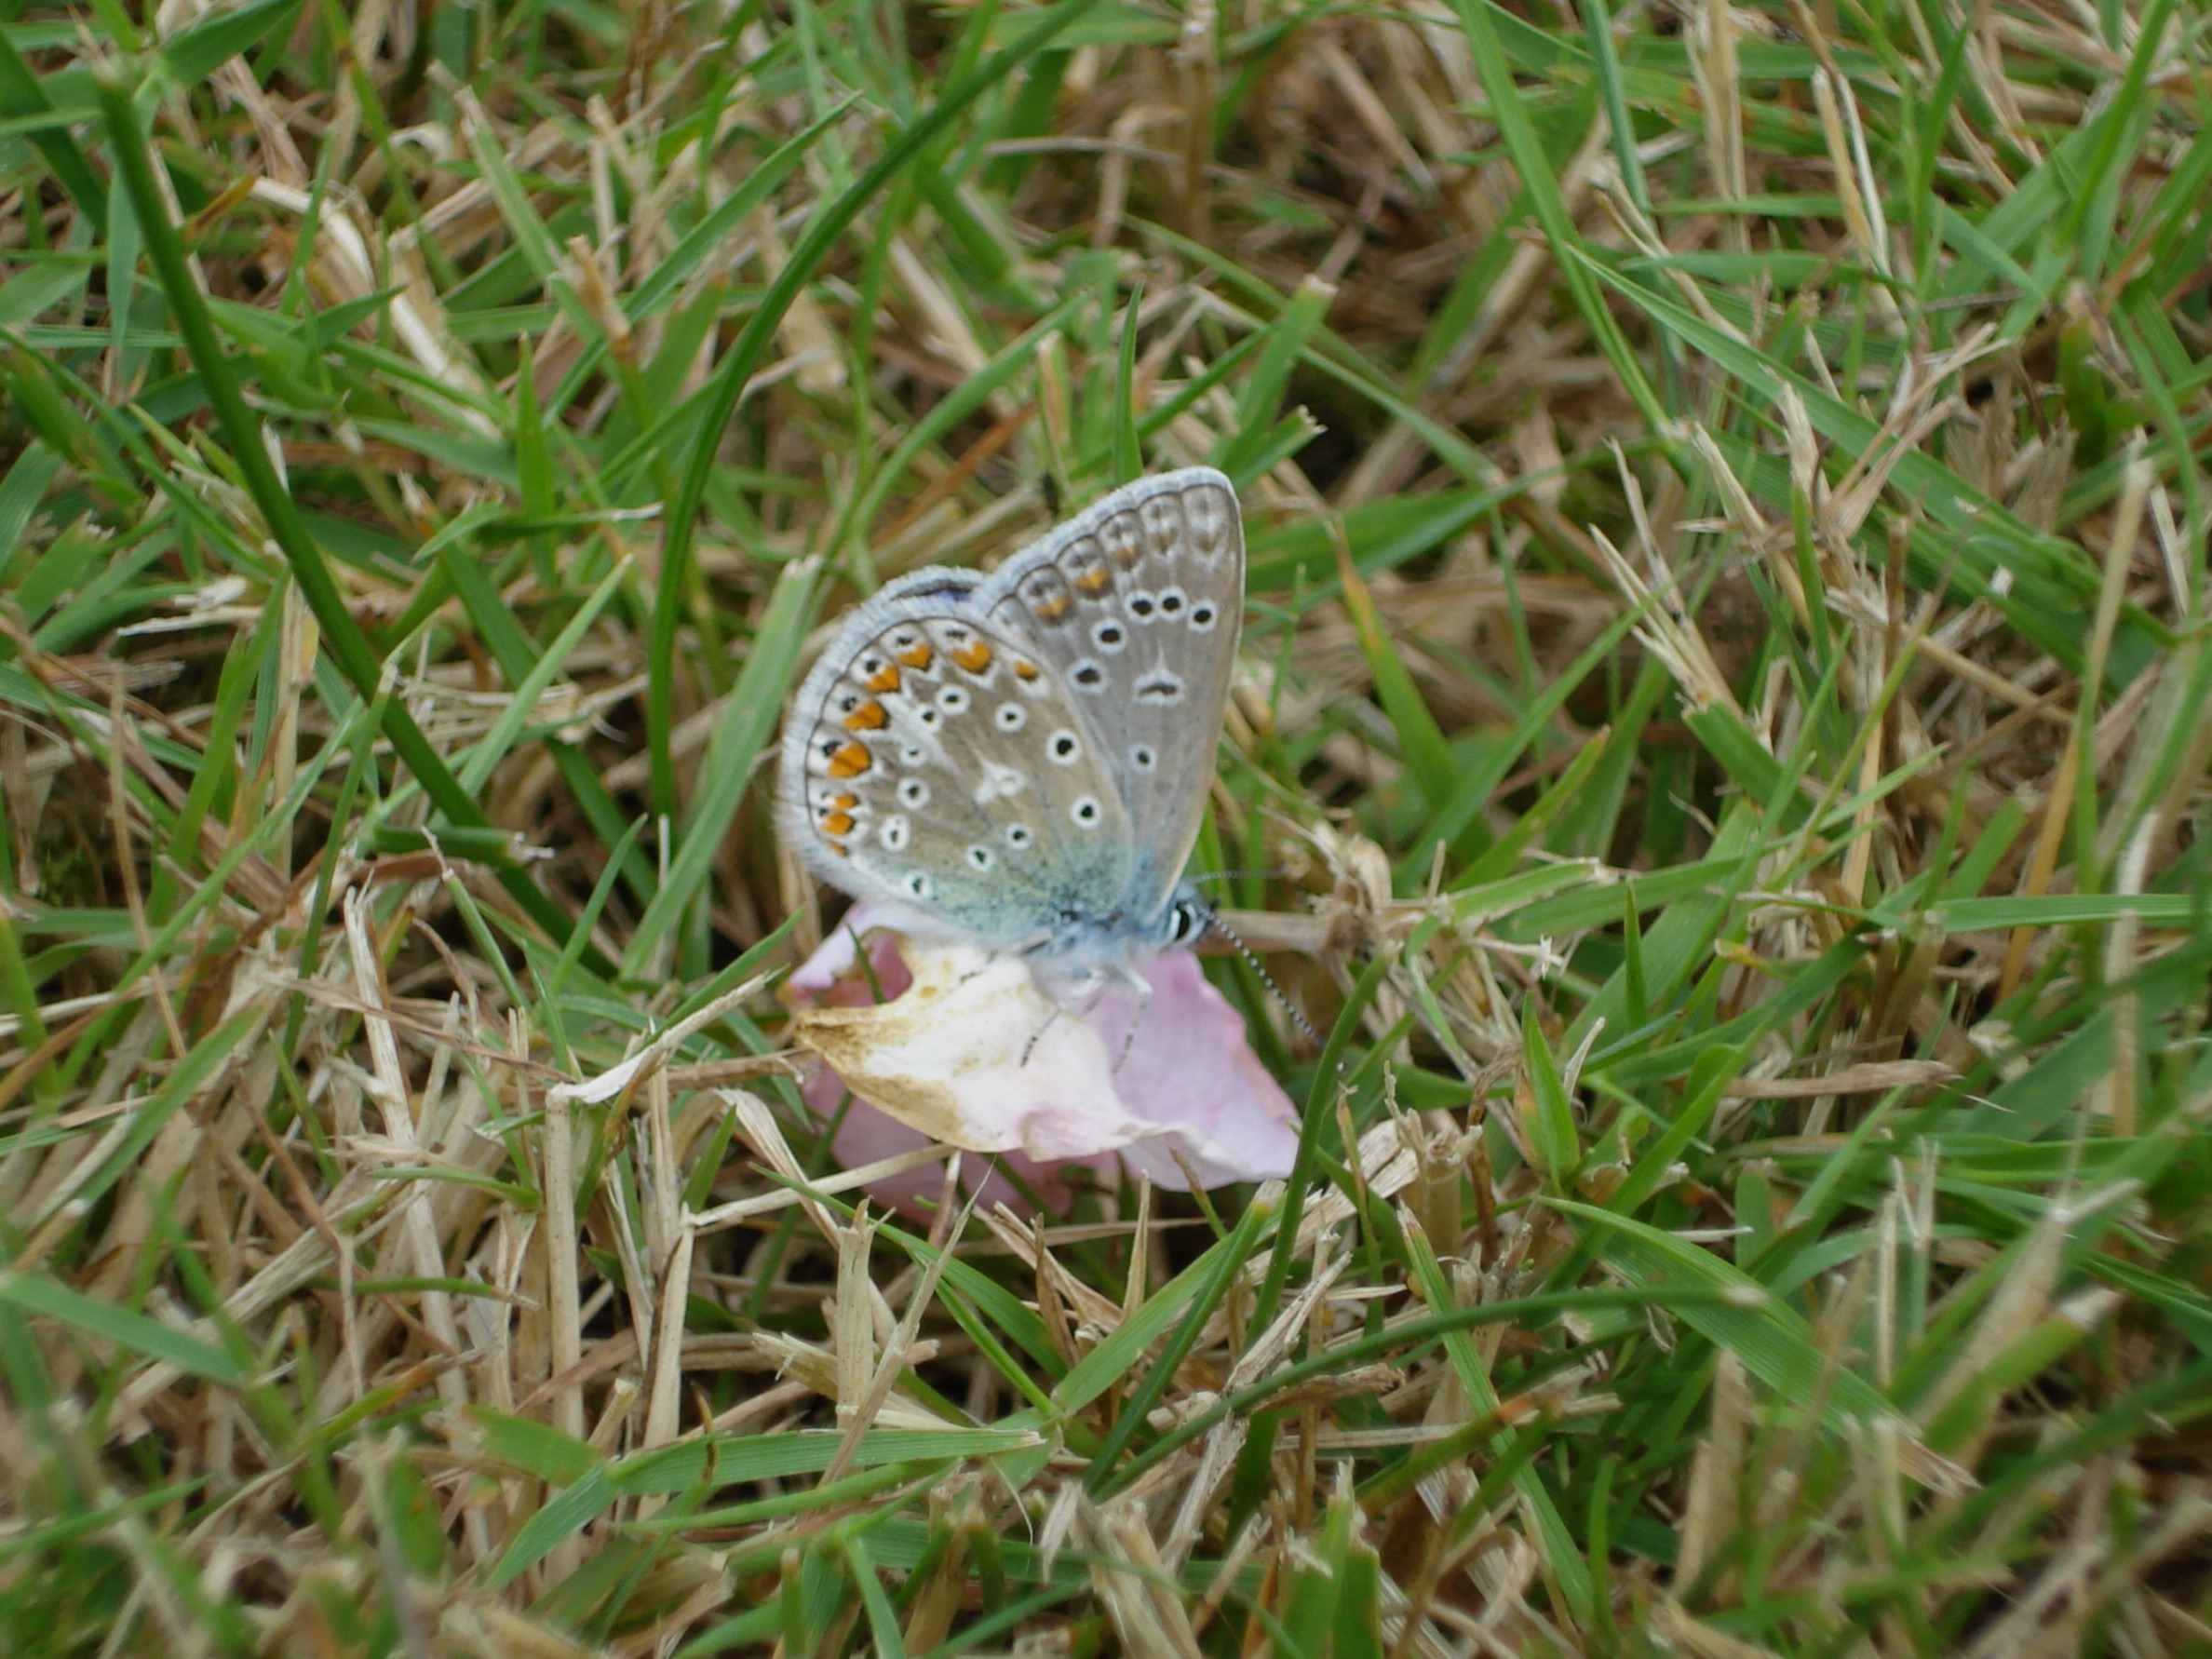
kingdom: Animalia
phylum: Arthropoda
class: Insecta
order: Lepidoptera
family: Lycaenidae
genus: Polyommatus
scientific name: Polyommatus icarus
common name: Almindelig blåfugl
